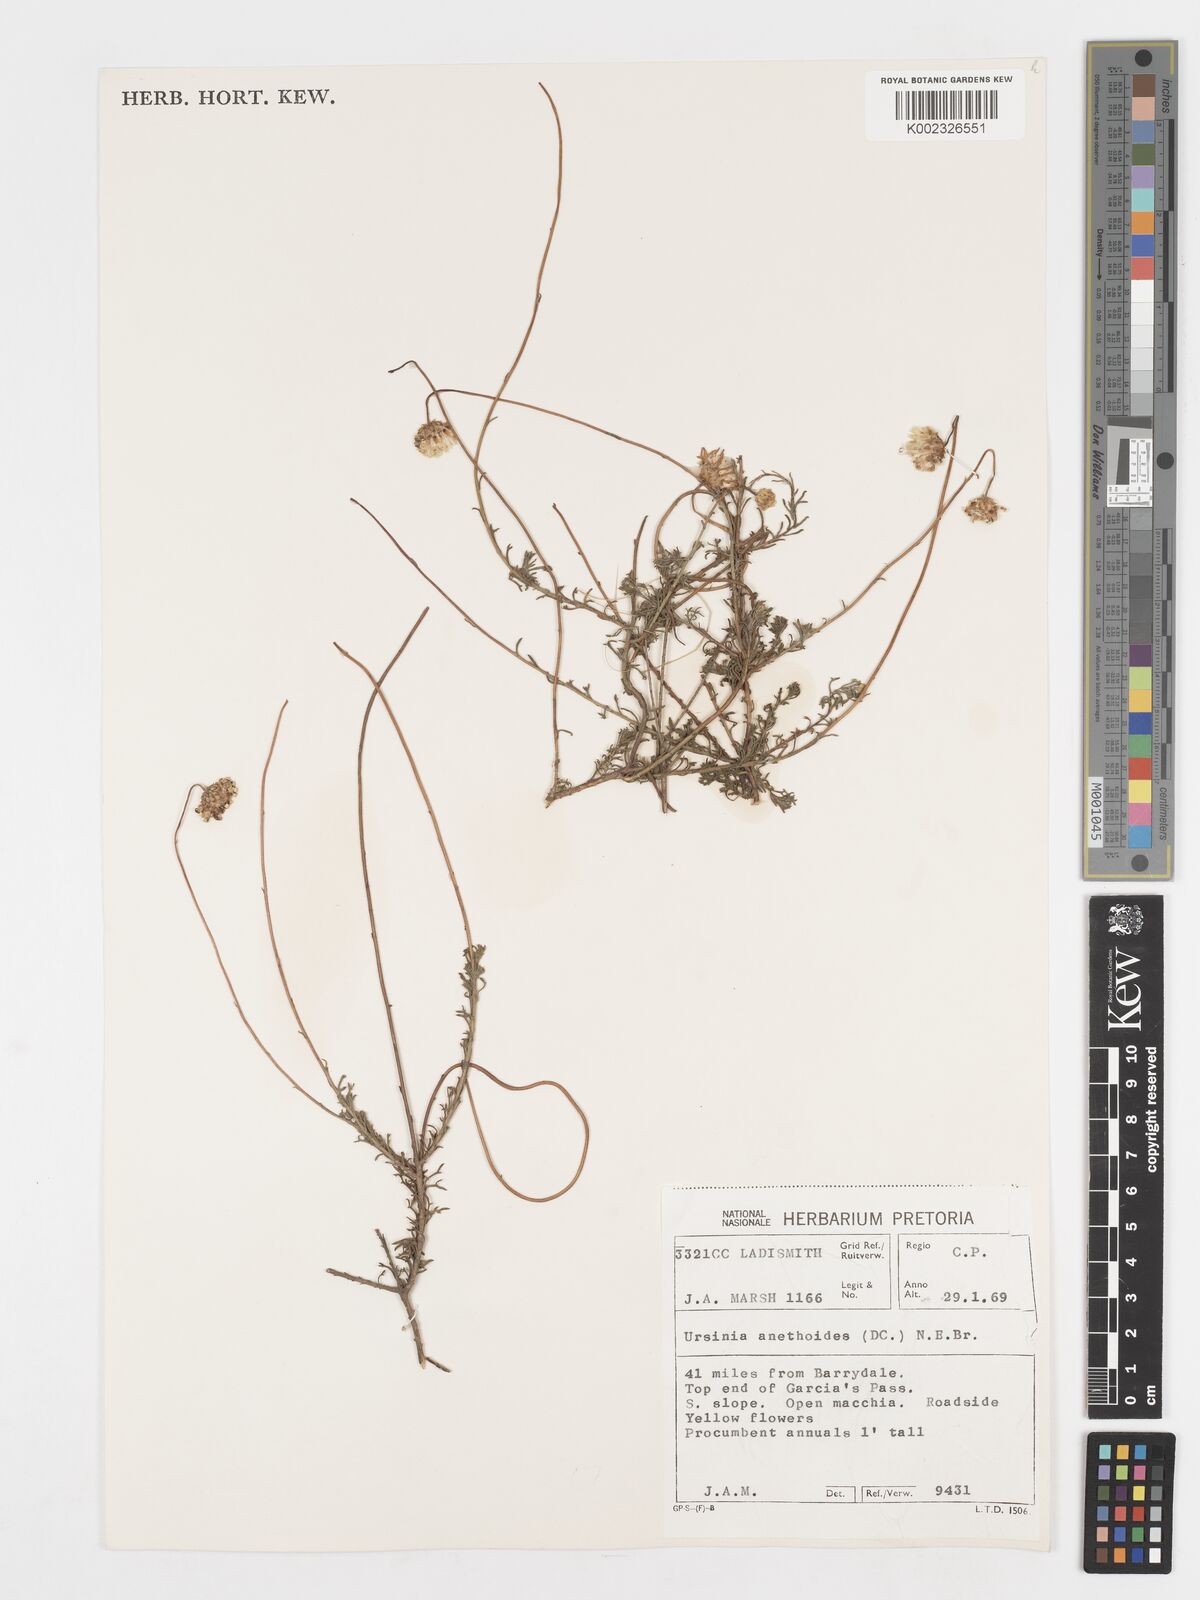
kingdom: Plantae
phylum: Tracheophyta
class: Magnoliopsida
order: Asterales
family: Asteraceae
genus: Ursinia
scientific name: Ursinia anethoides
